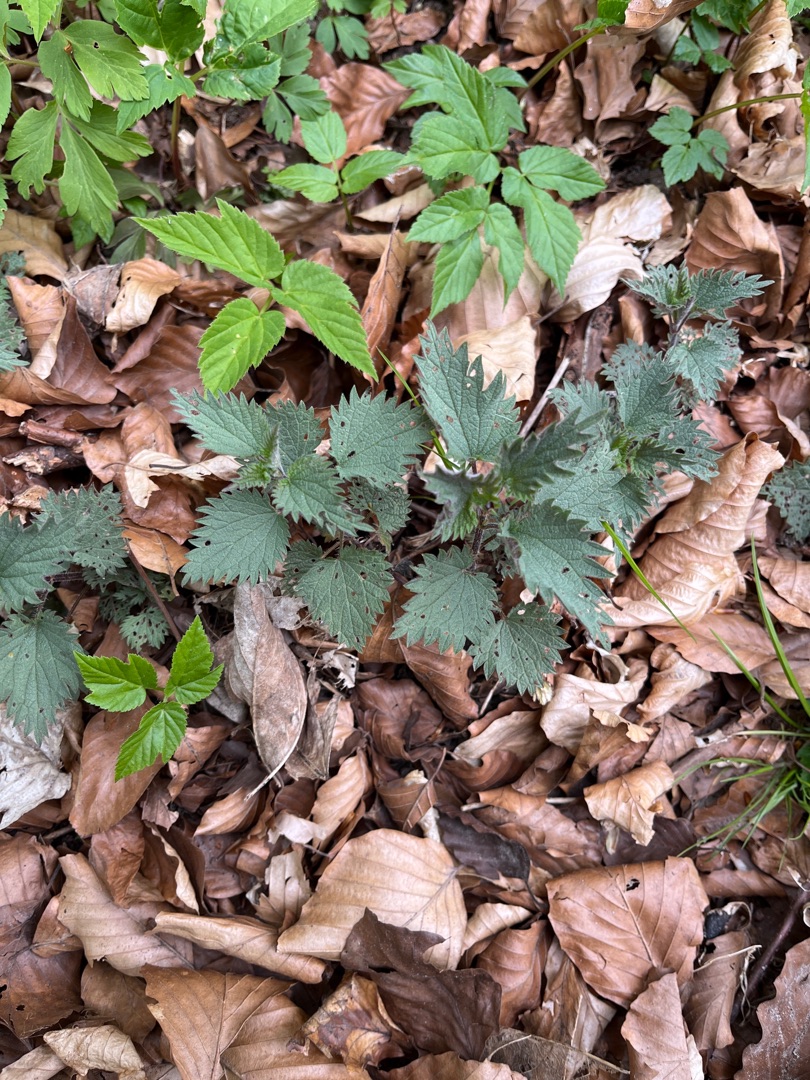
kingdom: Plantae
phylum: Tracheophyta
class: Magnoliopsida
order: Rosales
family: Urticaceae
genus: Urtica
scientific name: Urtica dioica
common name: Stor nælde
